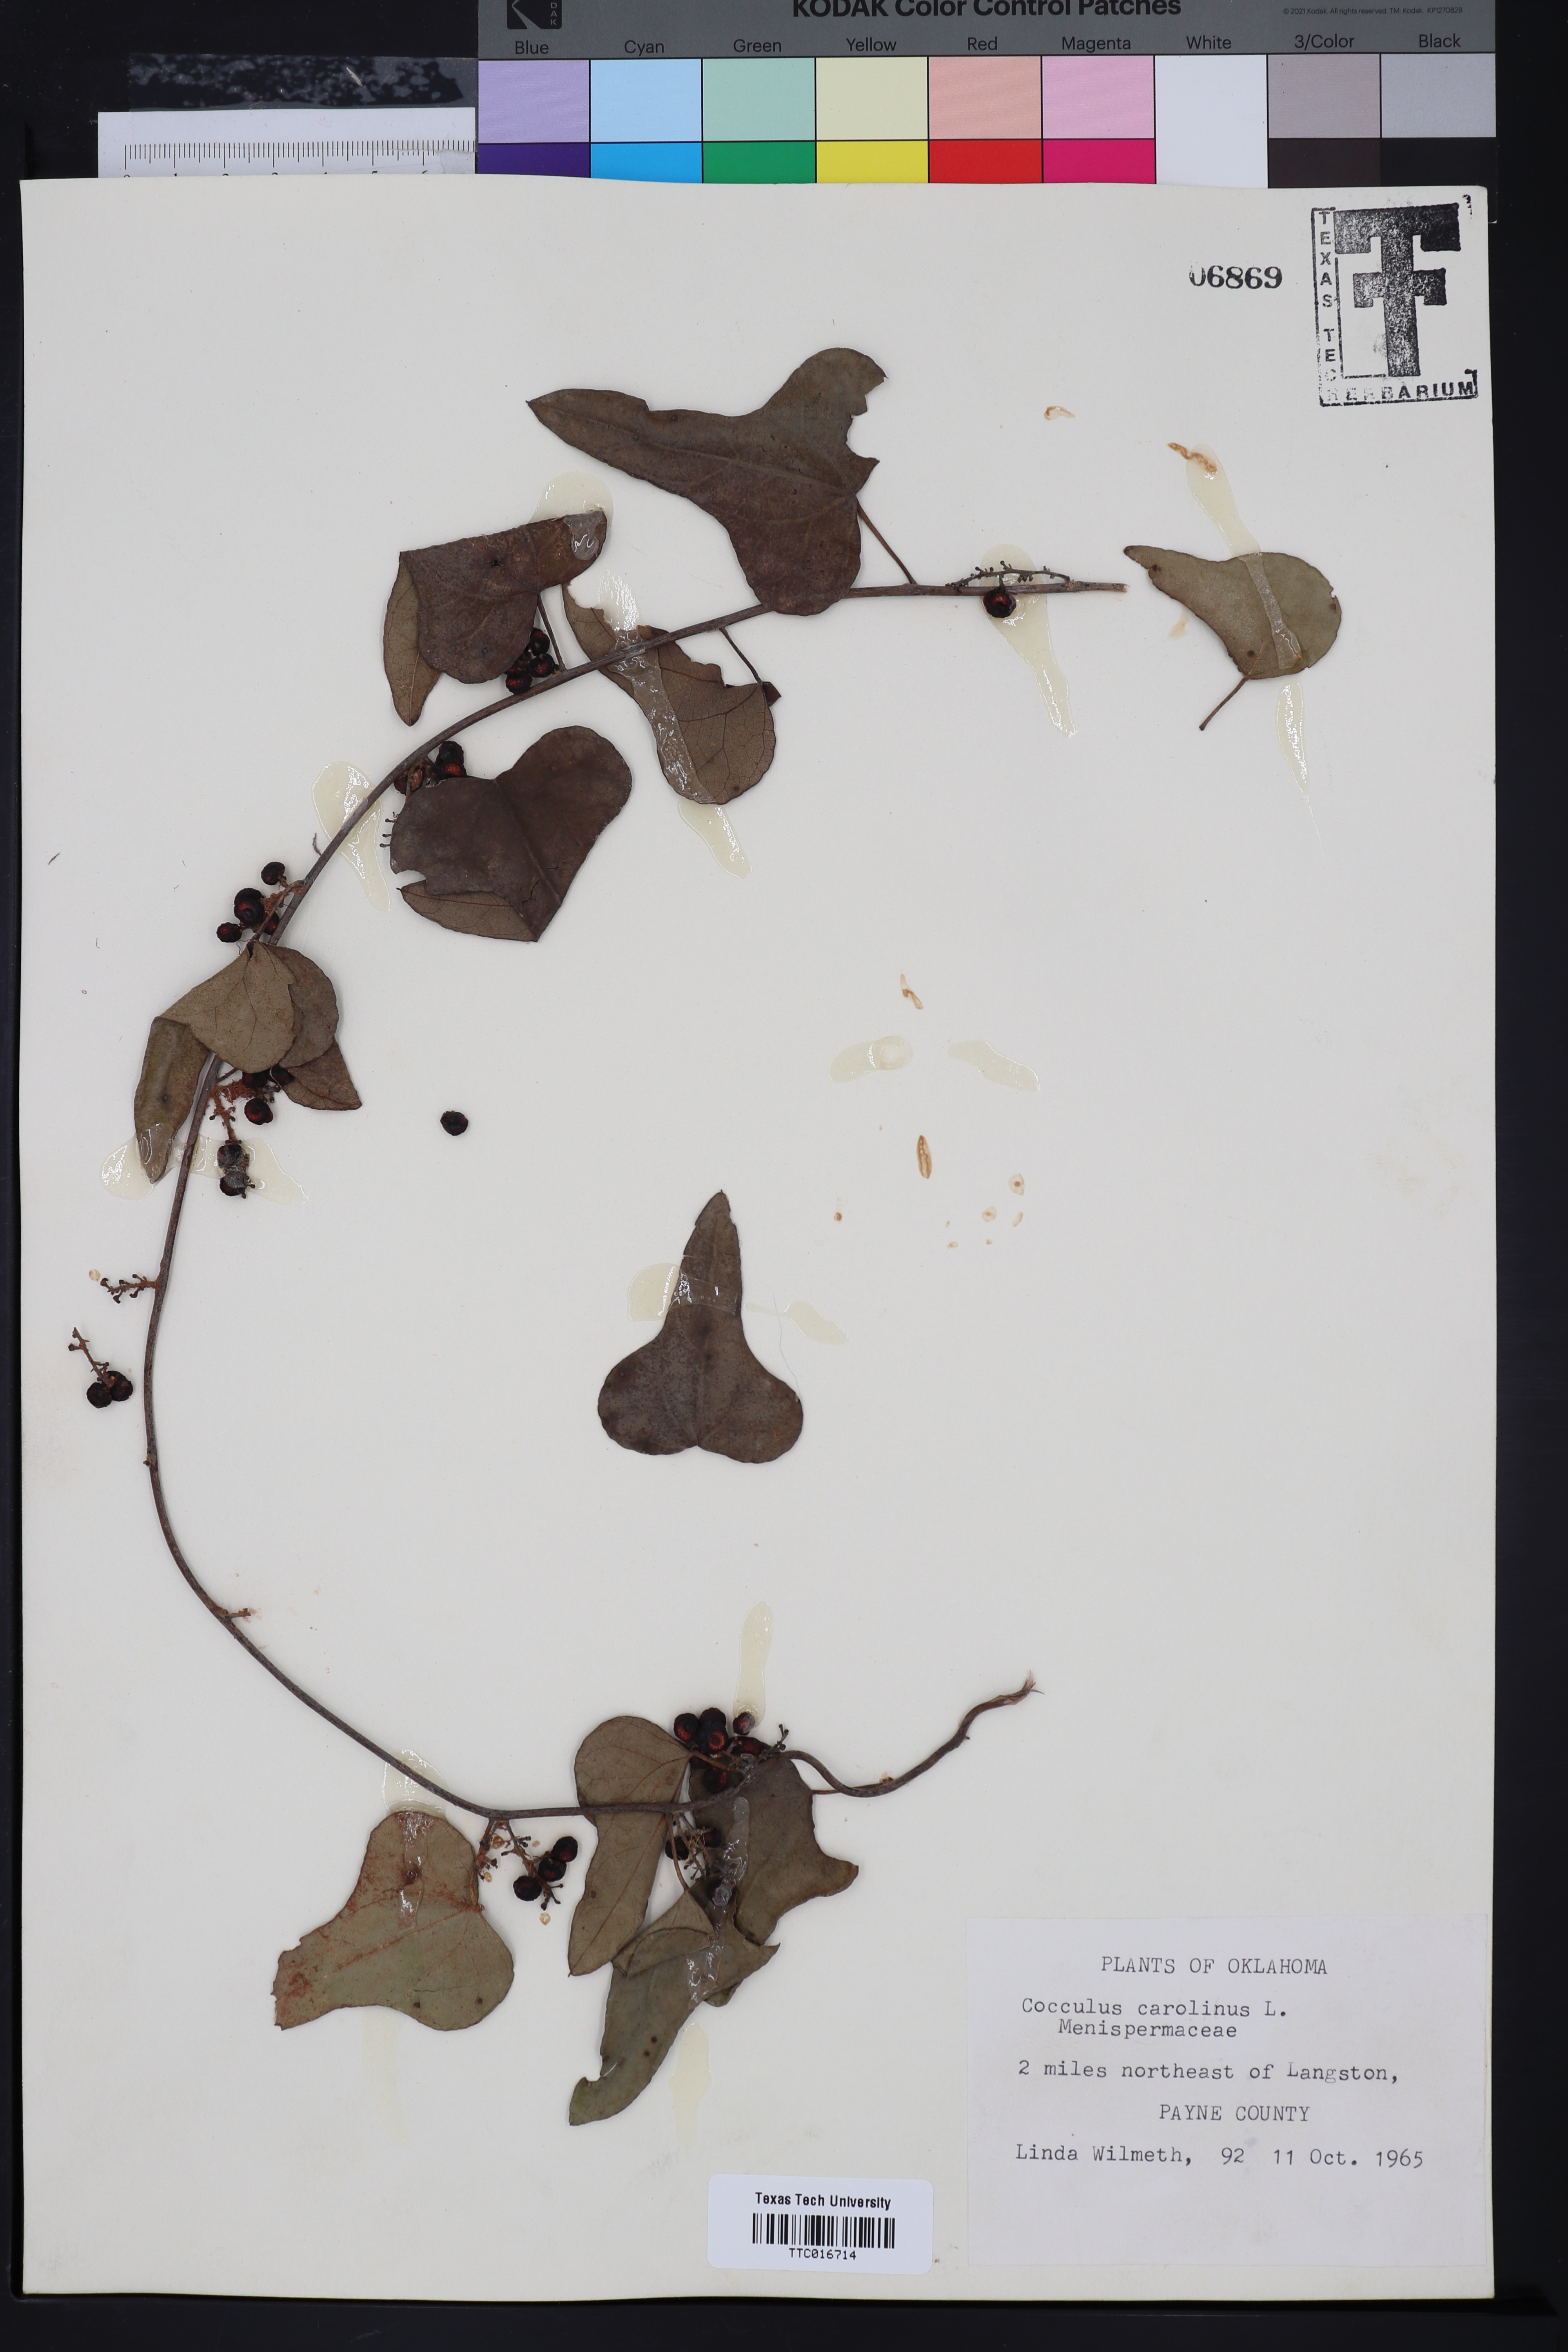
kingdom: Plantae
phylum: Tracheophyta
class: Magnoliopsida
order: Ranunculales
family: Menispermaceae
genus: Cocculus
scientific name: Cocculus carolinus
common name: Carolina moonseed
